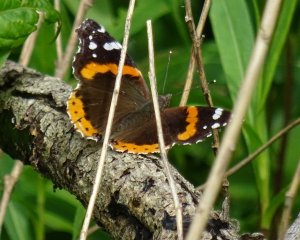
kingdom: Animalia
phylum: Arthropoda
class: Insecta
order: Lepidoptera
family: Nymphalidae
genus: Vanessa
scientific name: Vanessa atalanta
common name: Red Admiral
